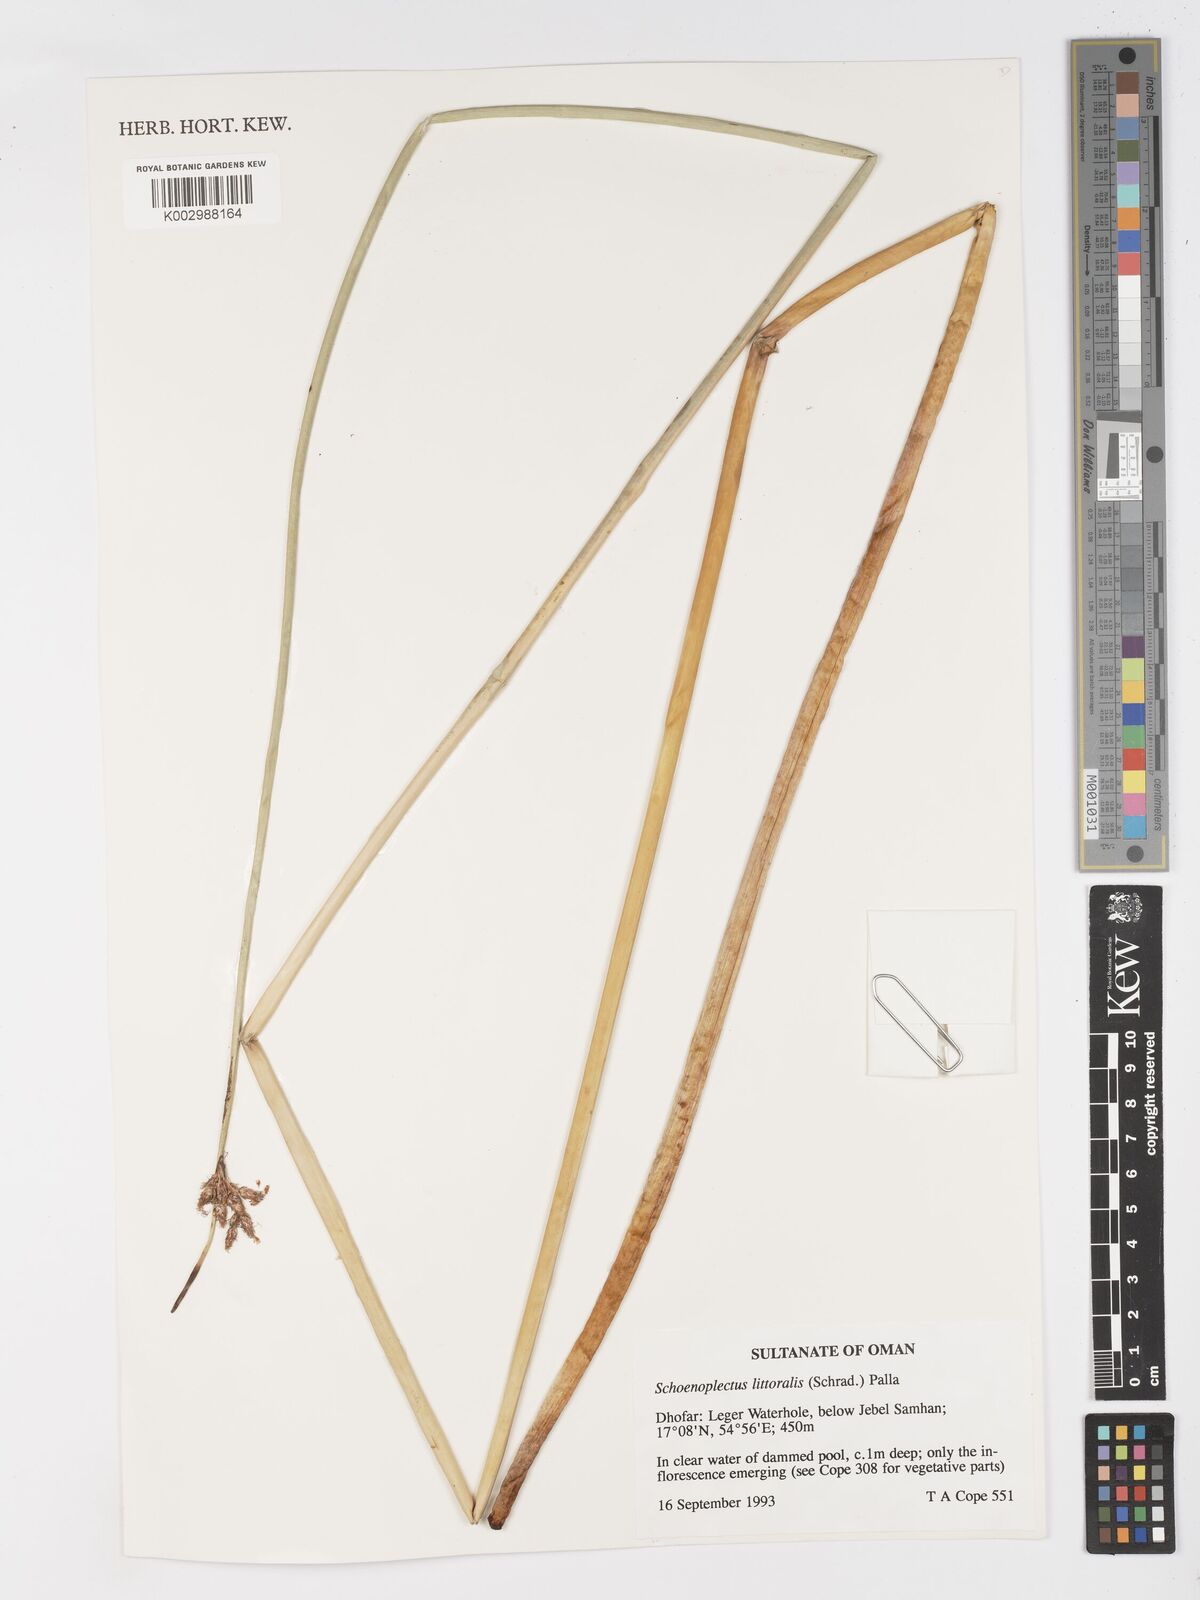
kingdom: Plantae
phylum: Tracheophyta
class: Liliopsida
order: Poales
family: Cyperaceae
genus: Schoenoplectus
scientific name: Schoenoplectus litoralis
